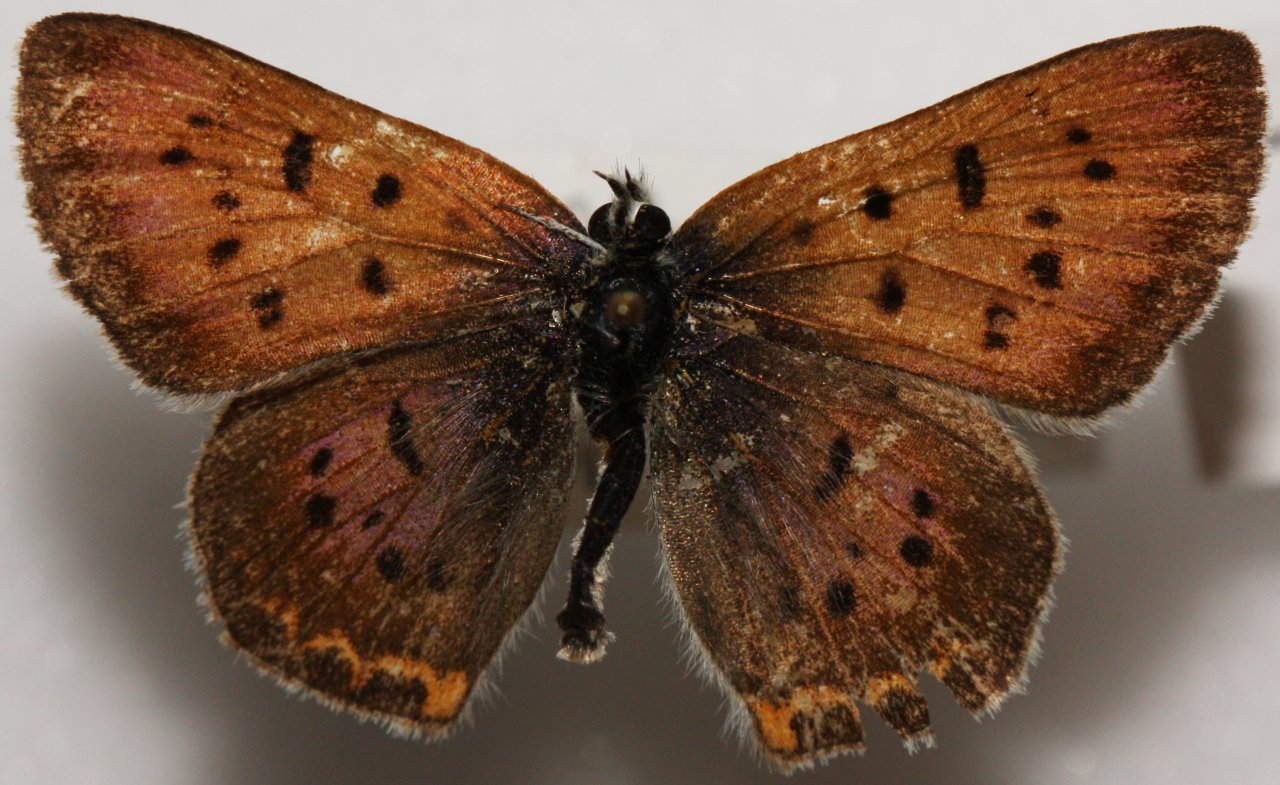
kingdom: Animalia
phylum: Arthropoda
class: Insecta
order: Lepidoptera
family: Sesiidae
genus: Sesia
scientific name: Sesia Lycaena helloides
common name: Purplish Copper
